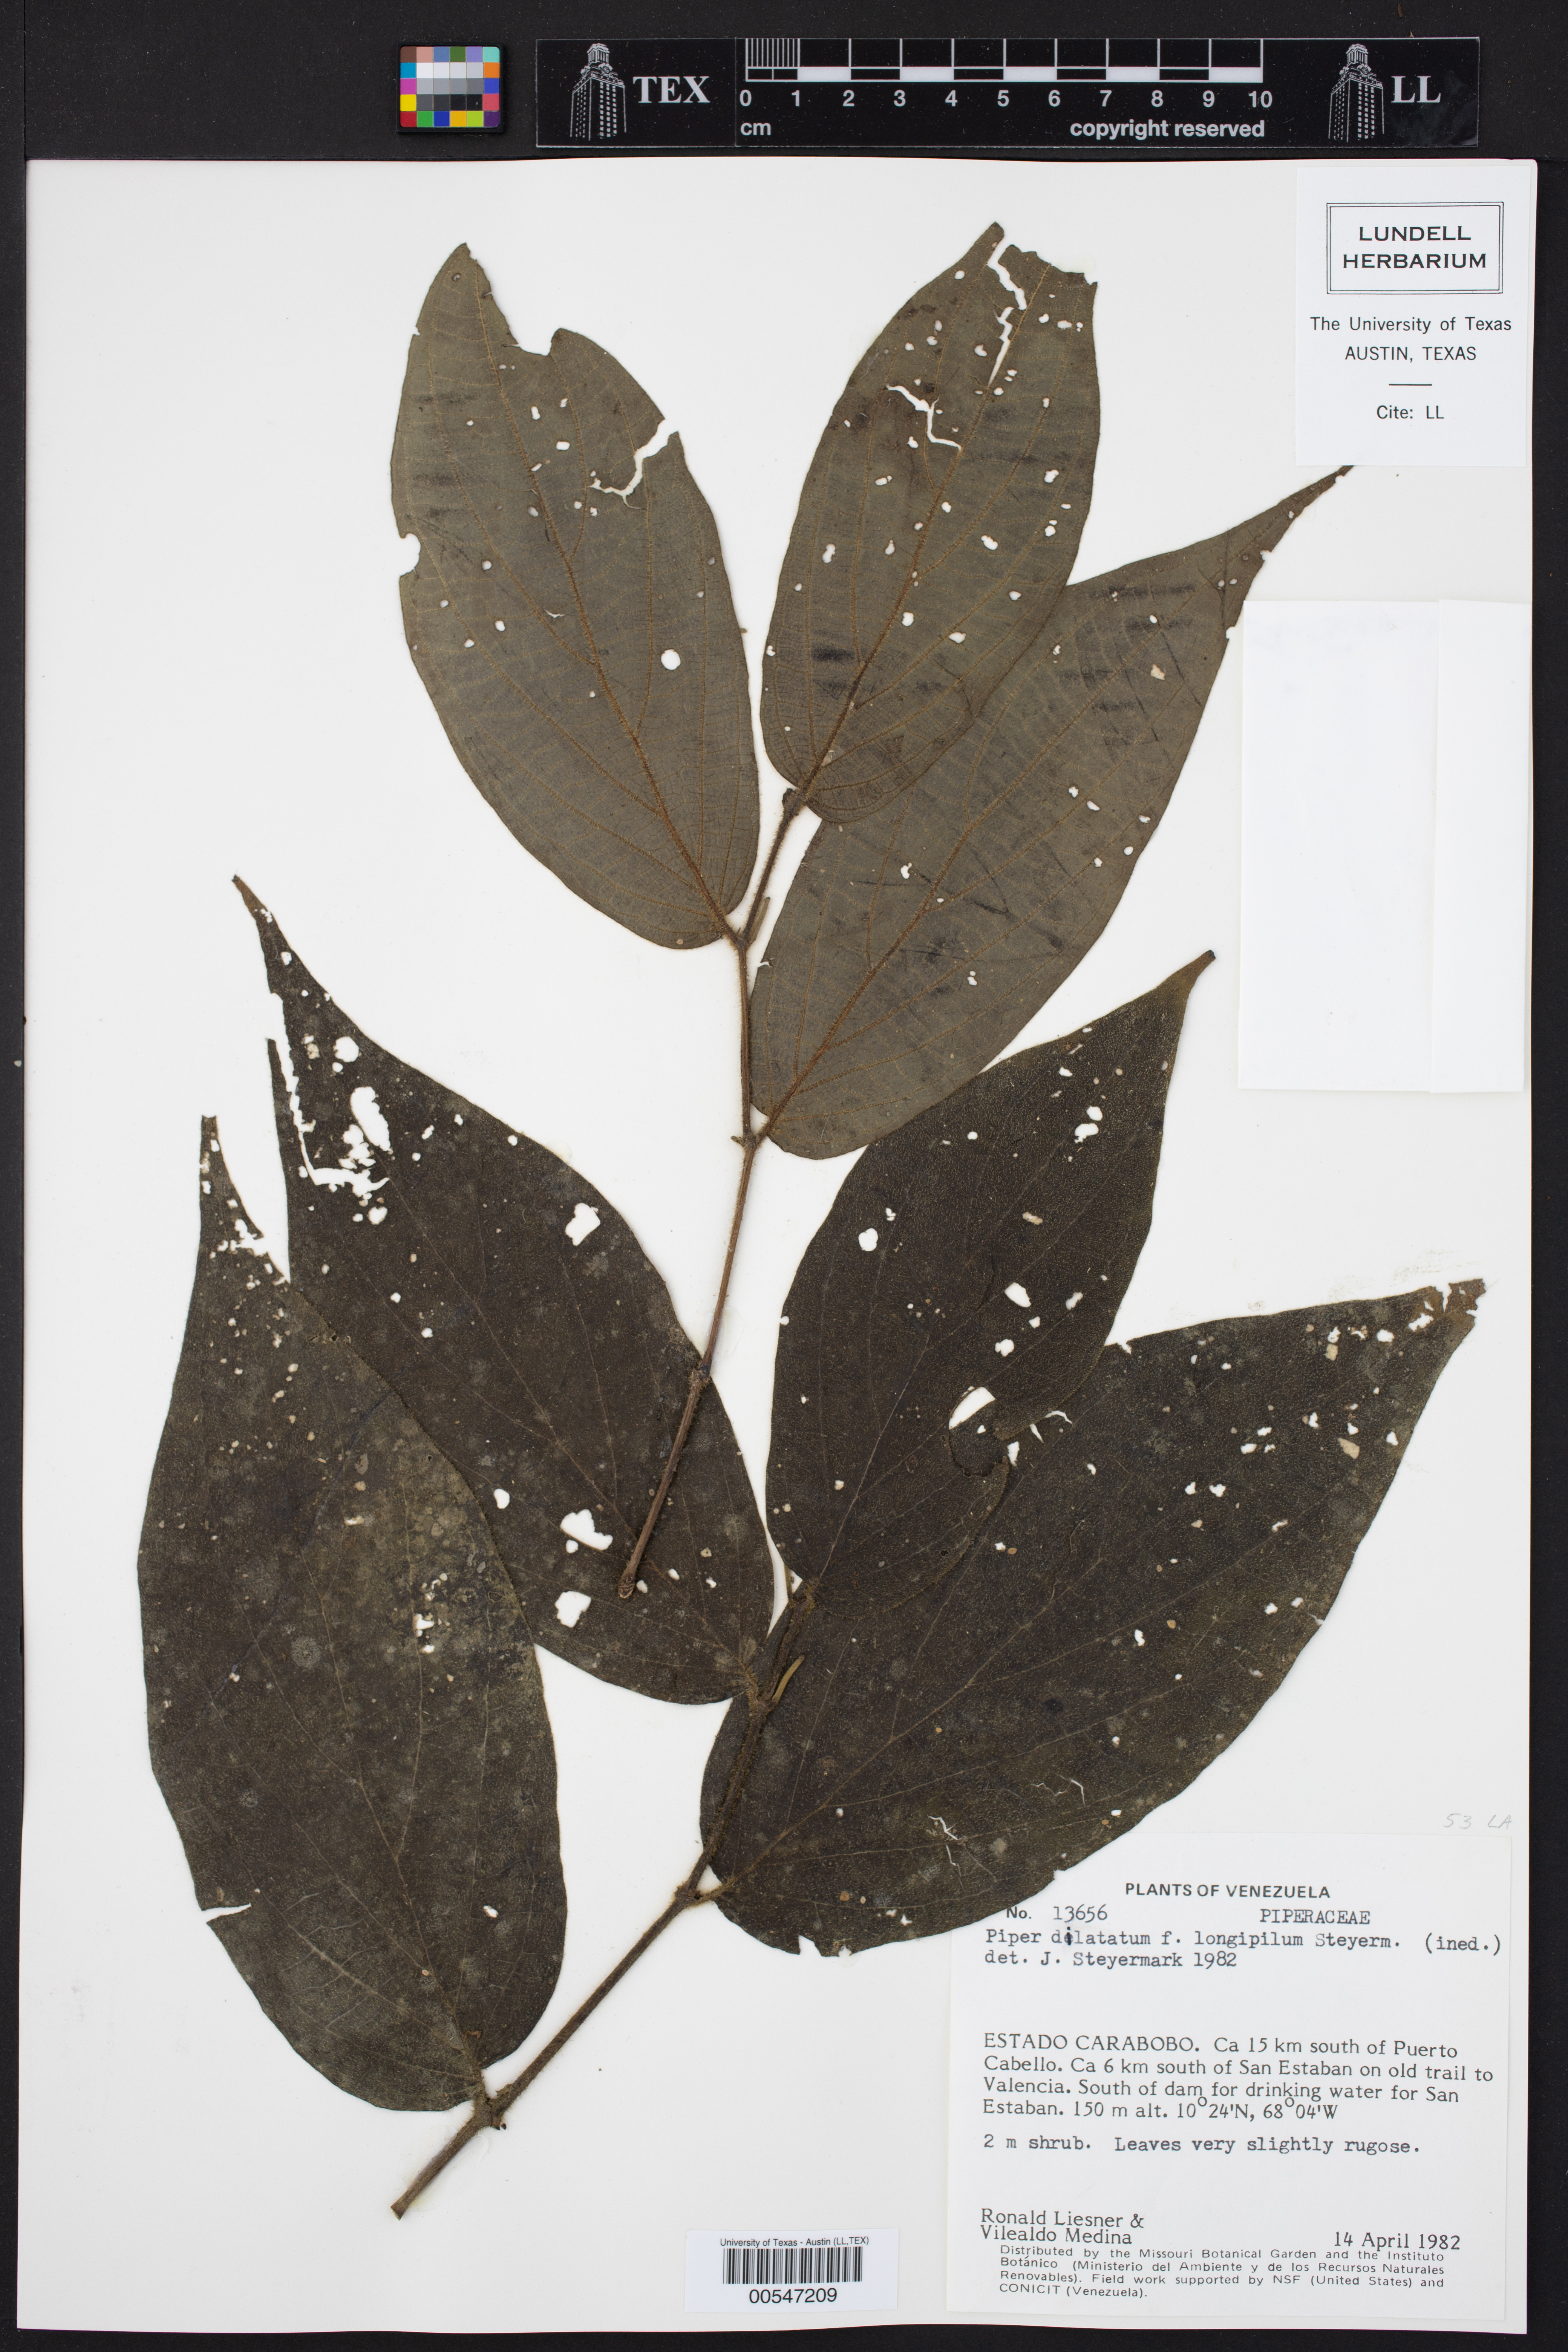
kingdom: Plantae
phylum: Tracheophyta
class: Magnoliopsida
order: Piperales
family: Piperaceae
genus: Piper
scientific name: Piper dilatatum
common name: Higuillo
